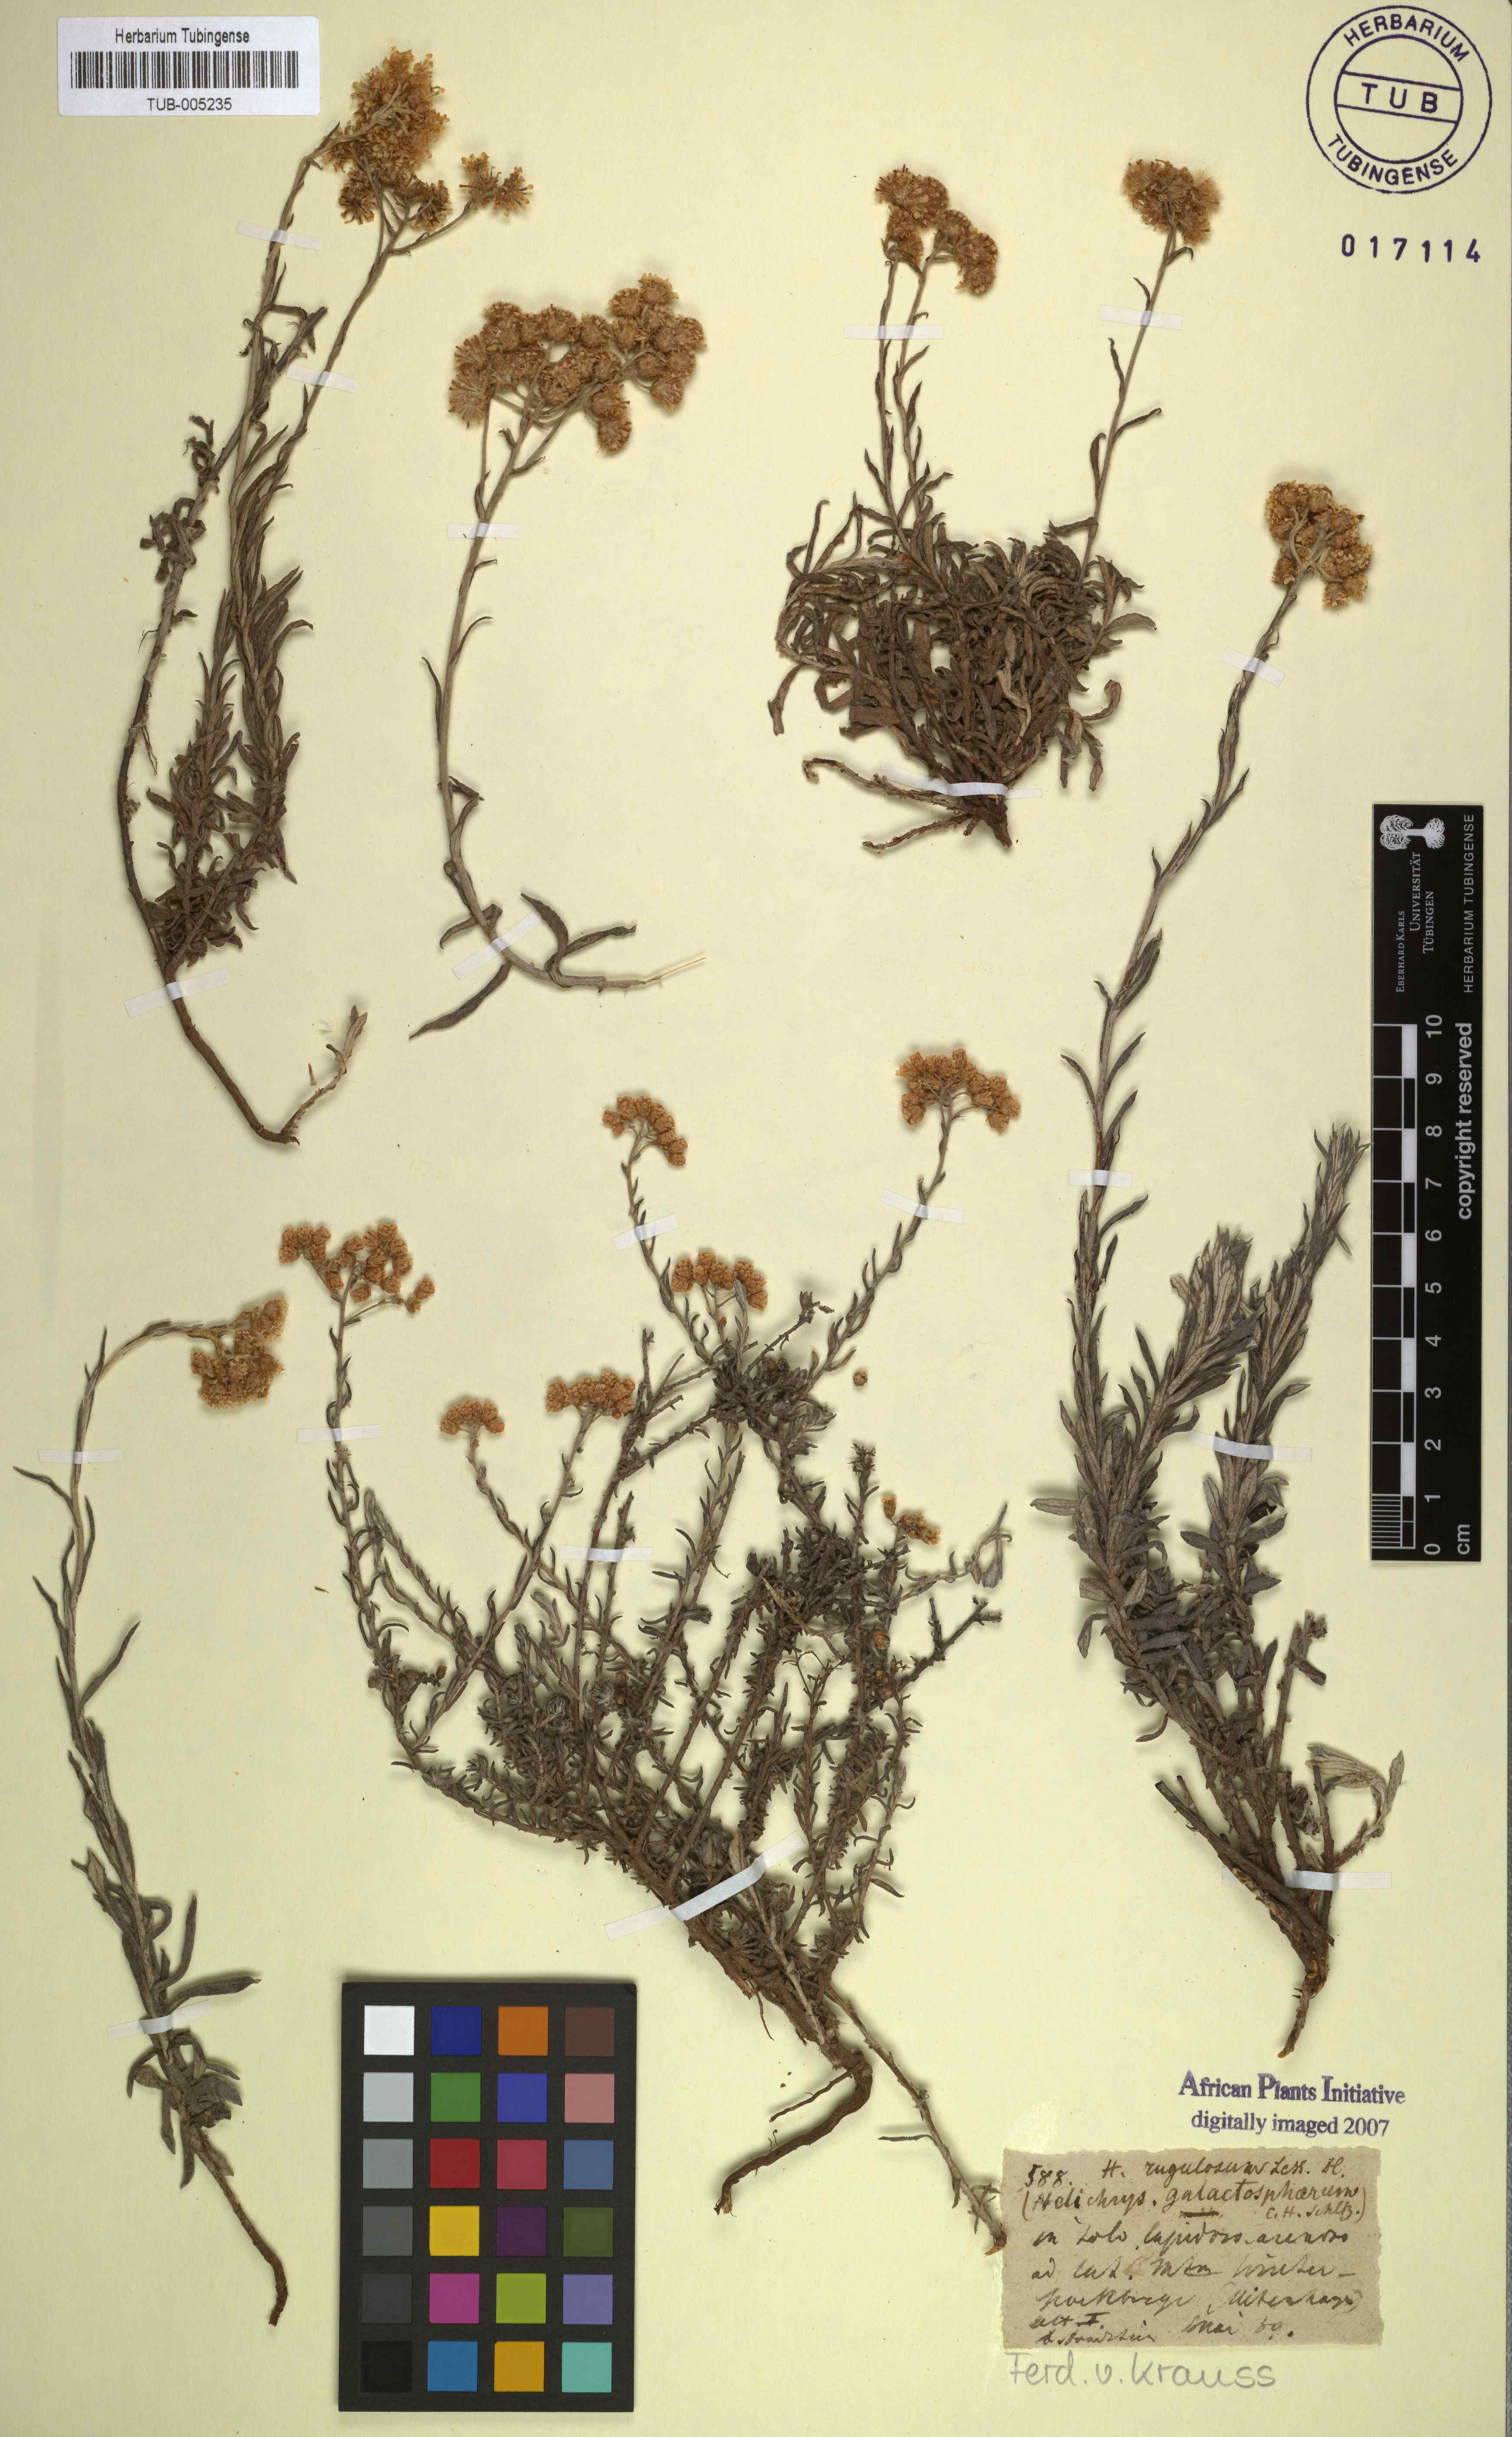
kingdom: Plantae
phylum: Tracheophyta
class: Magnoliopsida
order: Asterales
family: Asteraceae
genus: Helichrysum
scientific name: Helichrysum rugulosum
